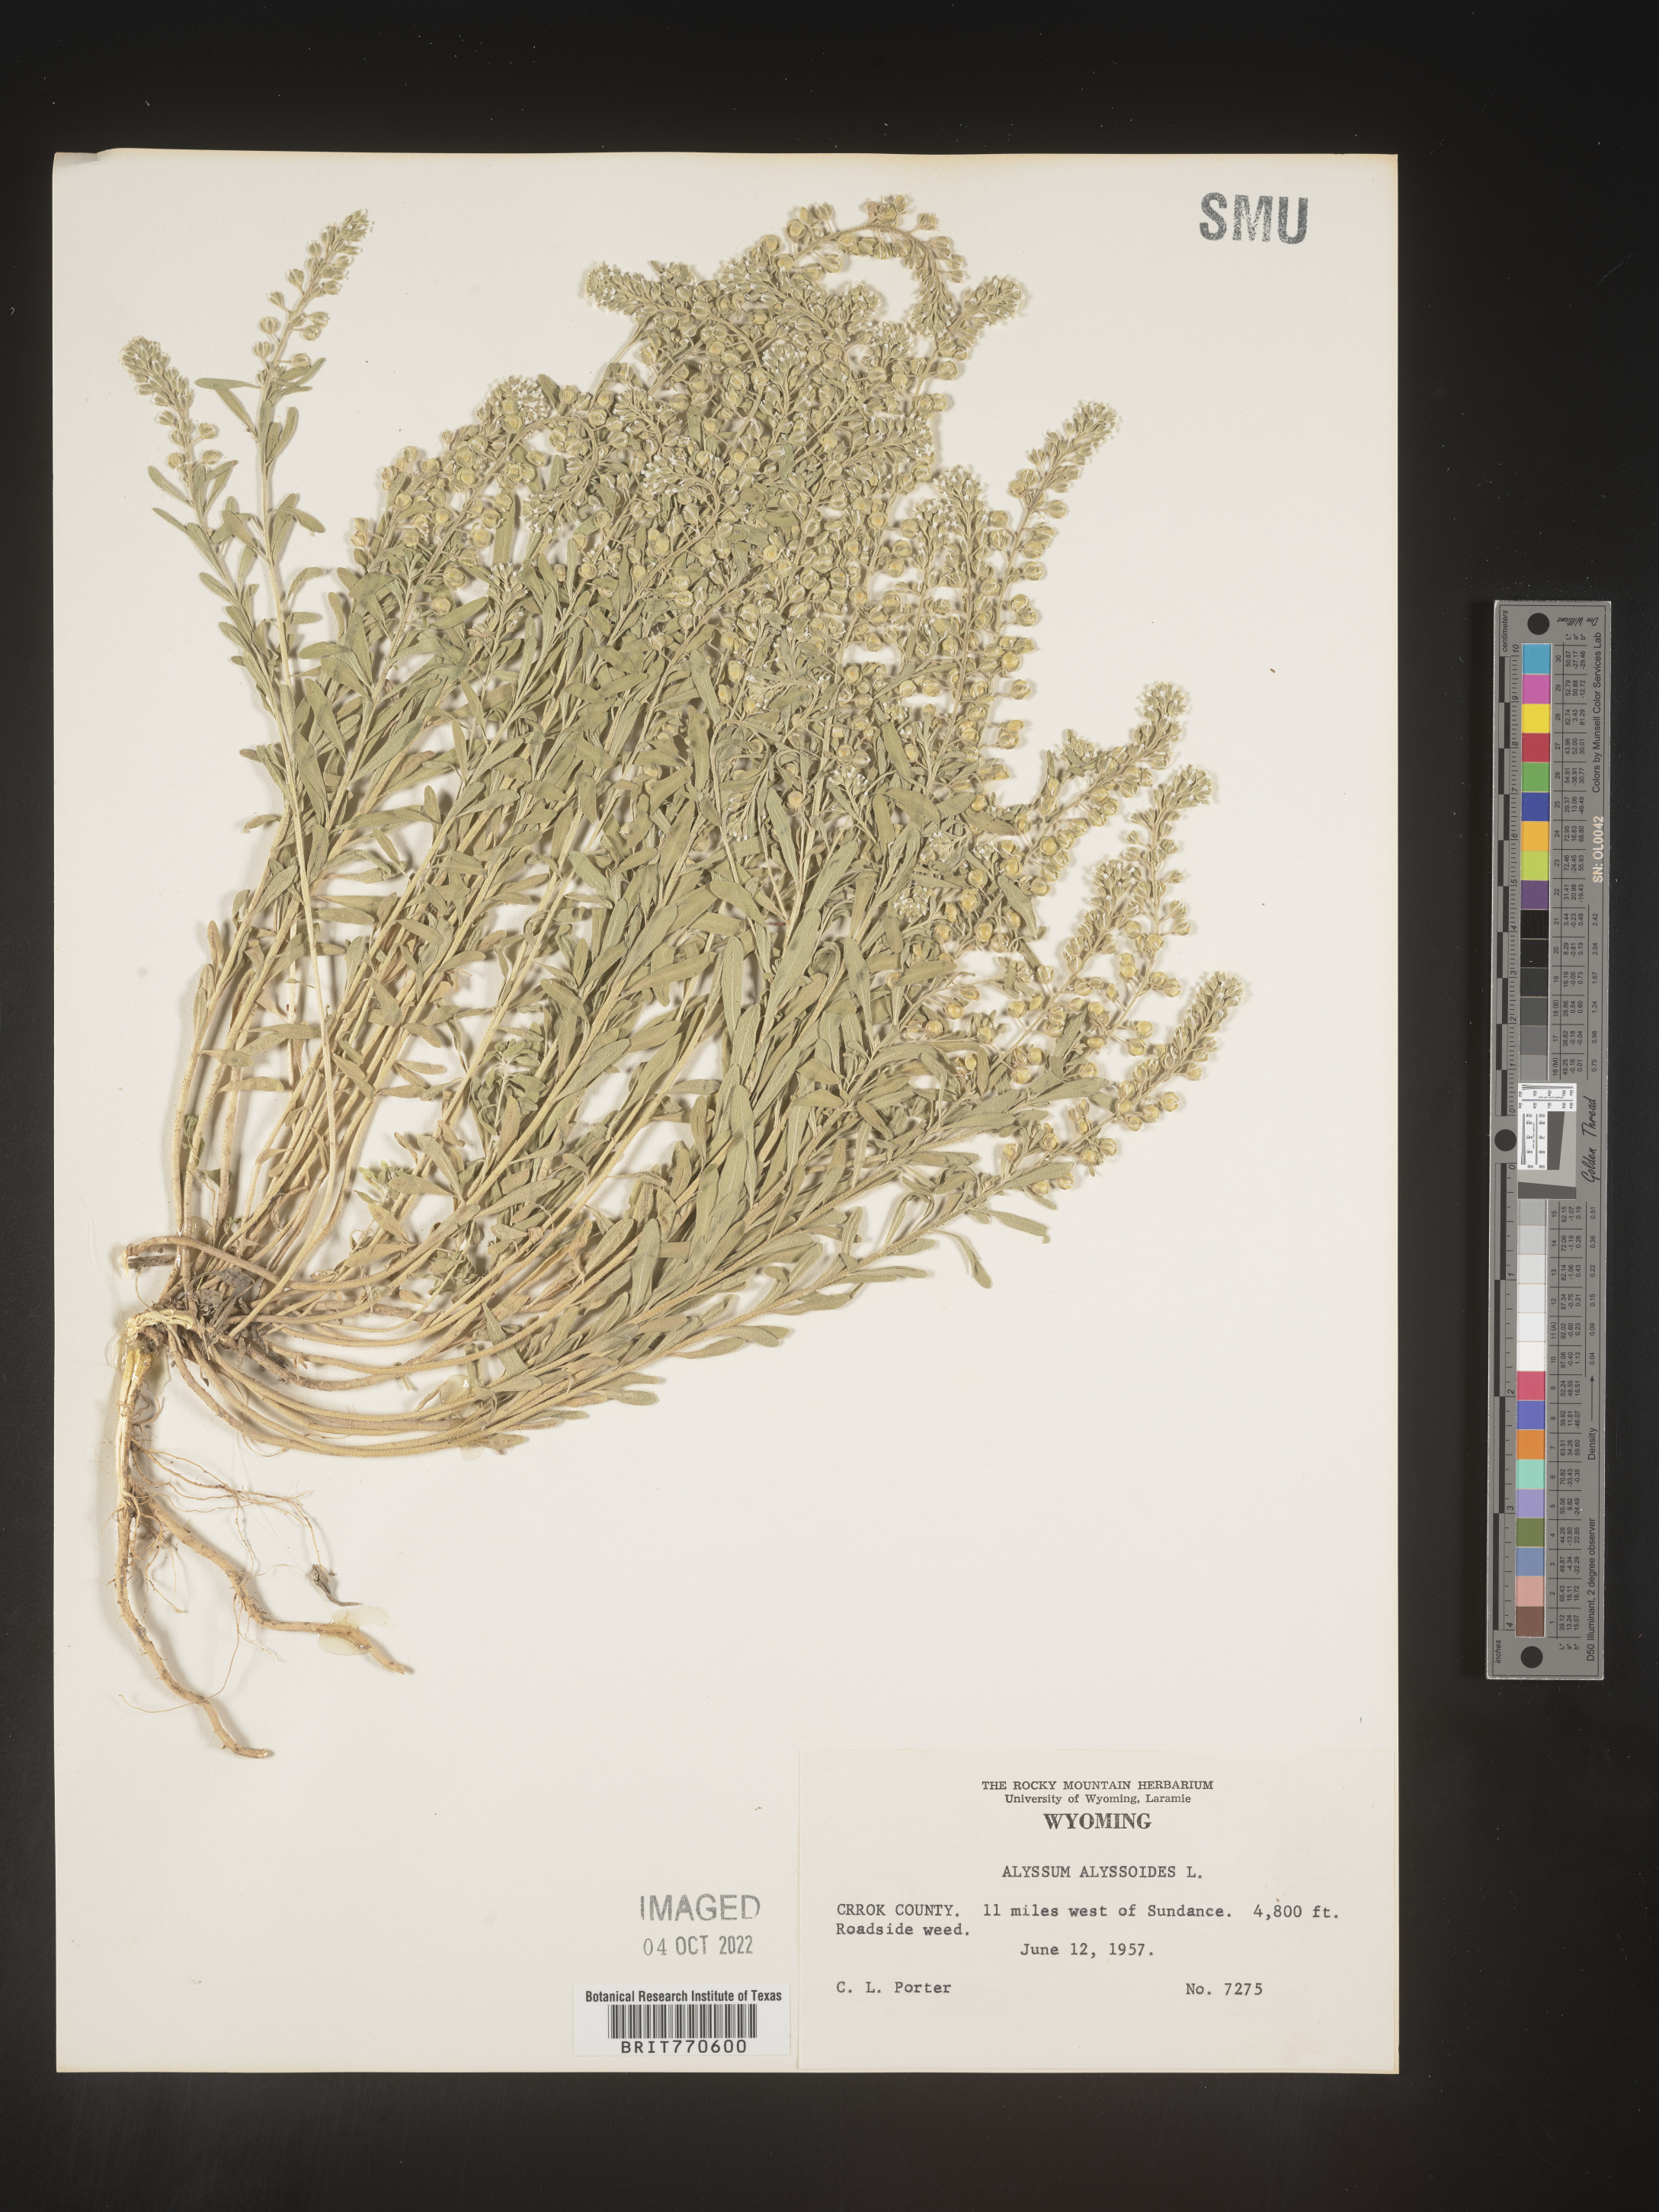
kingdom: Plantae
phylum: Tracheophyta
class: Magnoliopsida
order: Brassicales
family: Brassicaceae
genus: Alyssum
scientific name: Alyssum alyssoides
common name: Small alison
